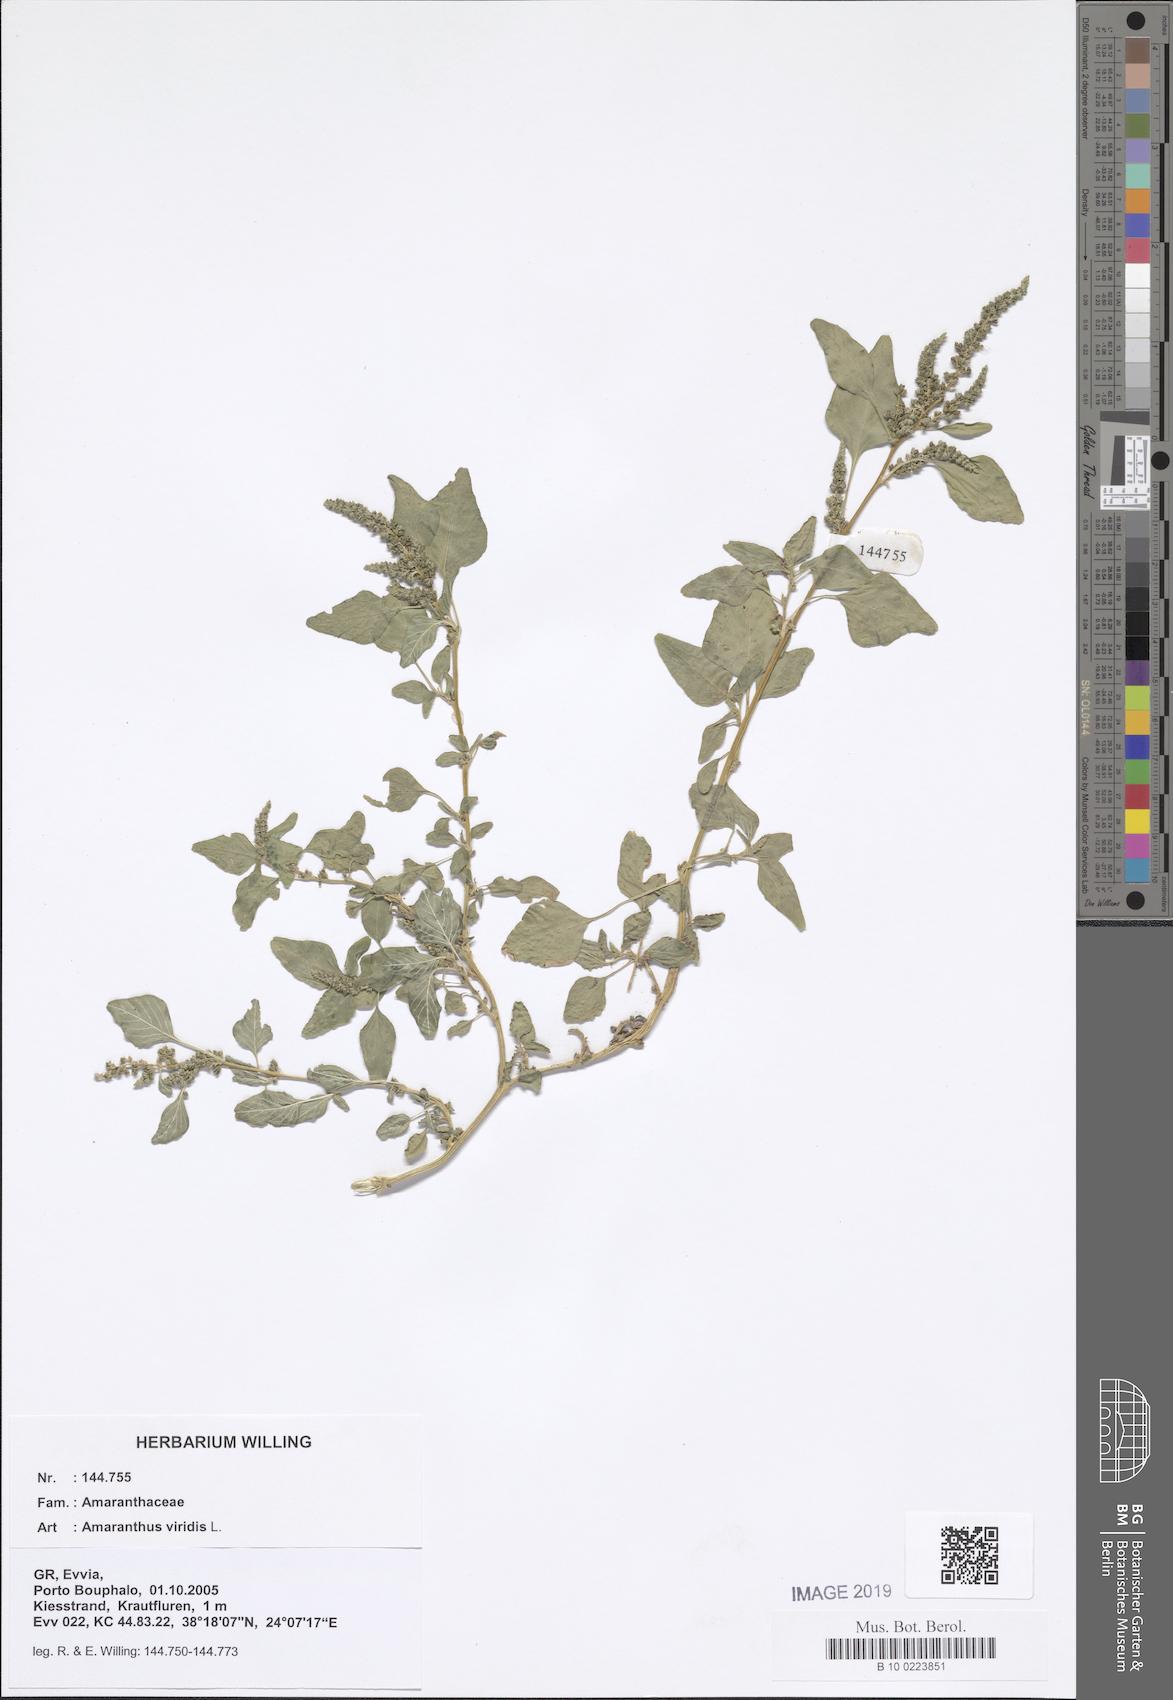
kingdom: Plantae
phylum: Tracheophyta
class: Magnoliopsida
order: Caryophyllales
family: Amaranthaceae
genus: Amaranthus
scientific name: Amaranthus viridis
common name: Slender amaranth
